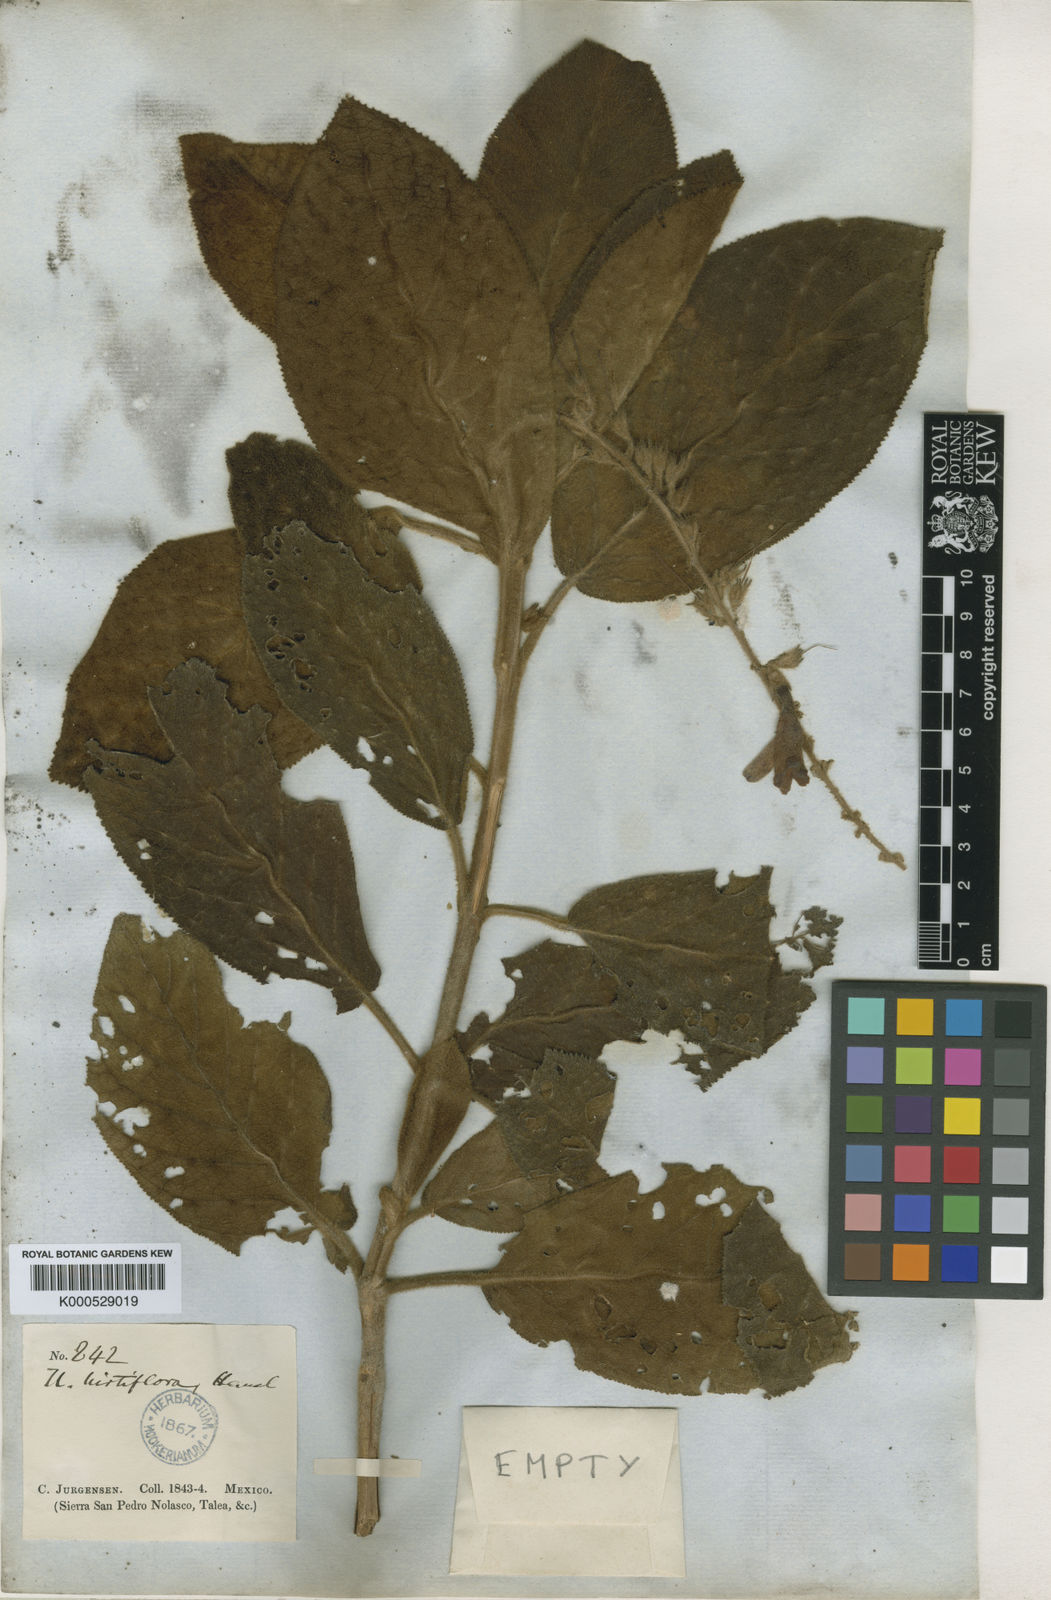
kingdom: Plantae
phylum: Tracheophyta
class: Magnoliopsida
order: Lamiales
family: Plantaginaceae
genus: Uroskinnera
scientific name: Uroskinnera hirtiflora
